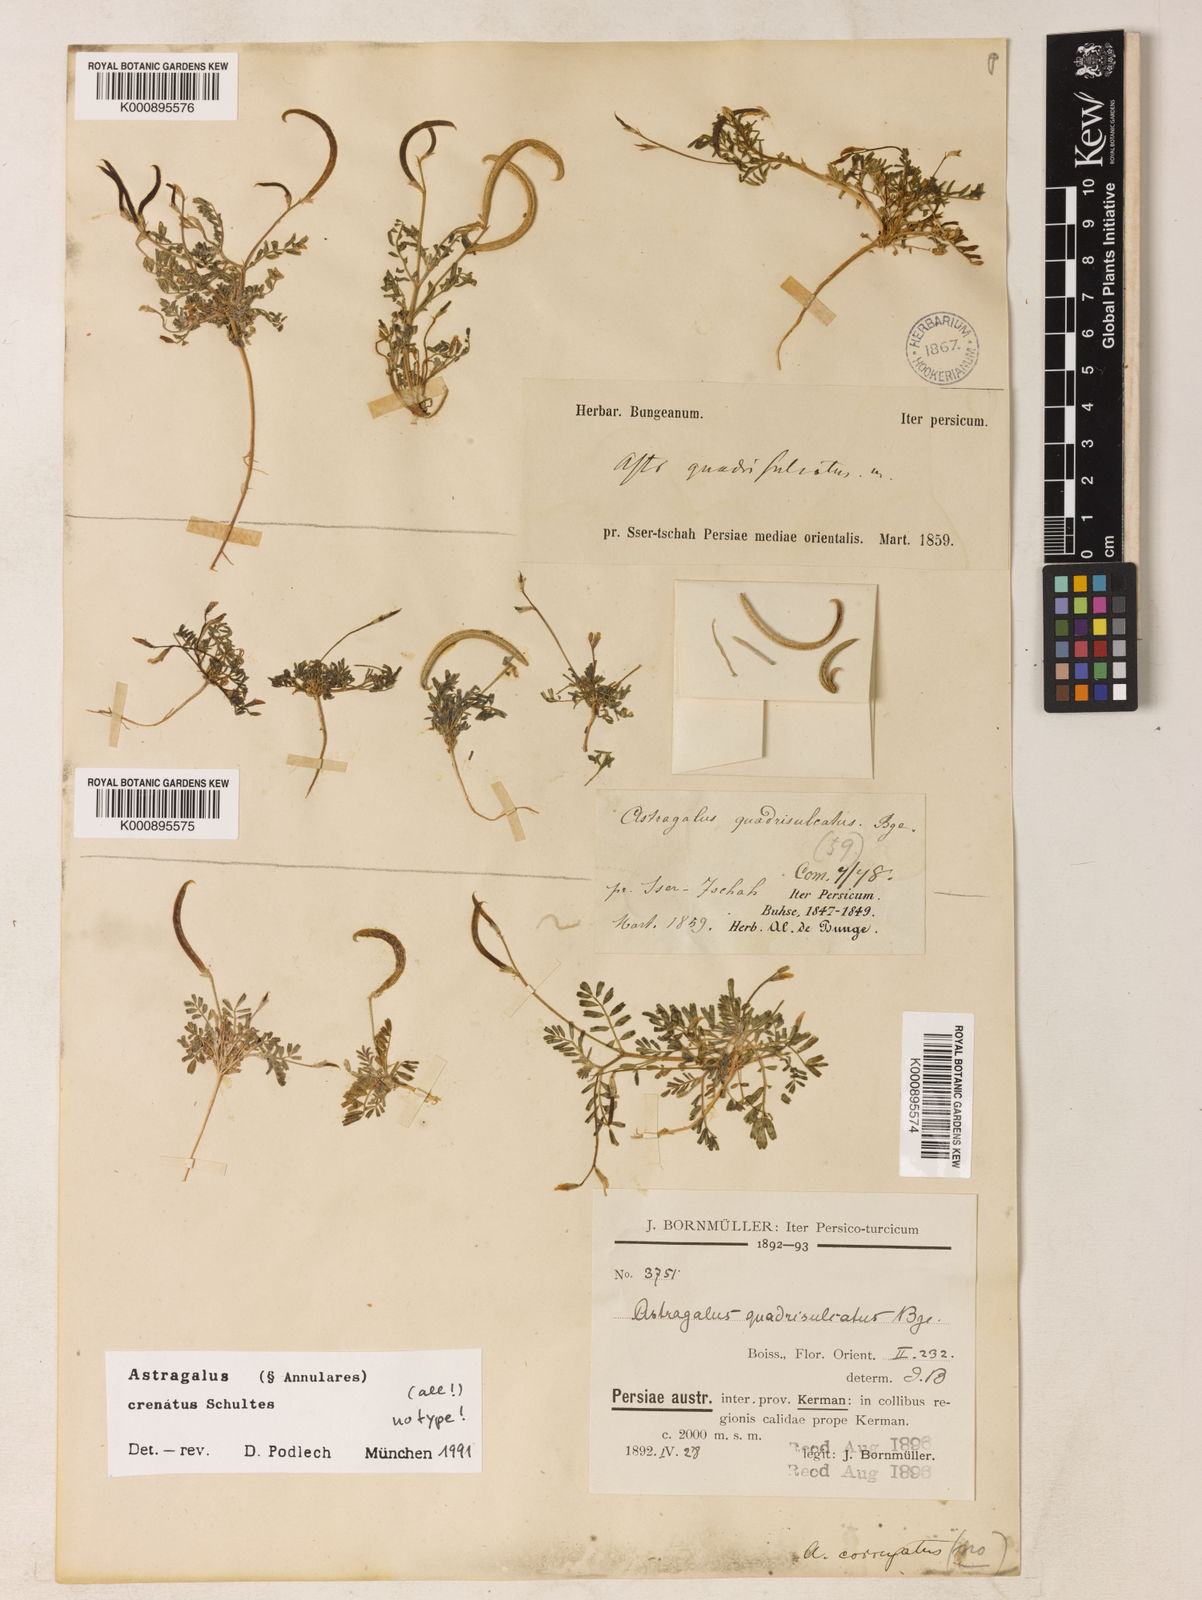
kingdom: Plantae
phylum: Tracheophyta
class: Magnoliopsida
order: Fabales
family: Fabaceae
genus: Astragalus
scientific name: Astragalus
